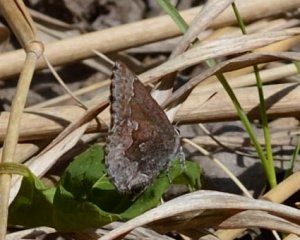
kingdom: Animalia
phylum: Arthropoda
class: Insecta
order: Lepidoptera
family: Lycaenidae
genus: Callophrys
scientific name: Callophrys polios
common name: Hoary Elfin
